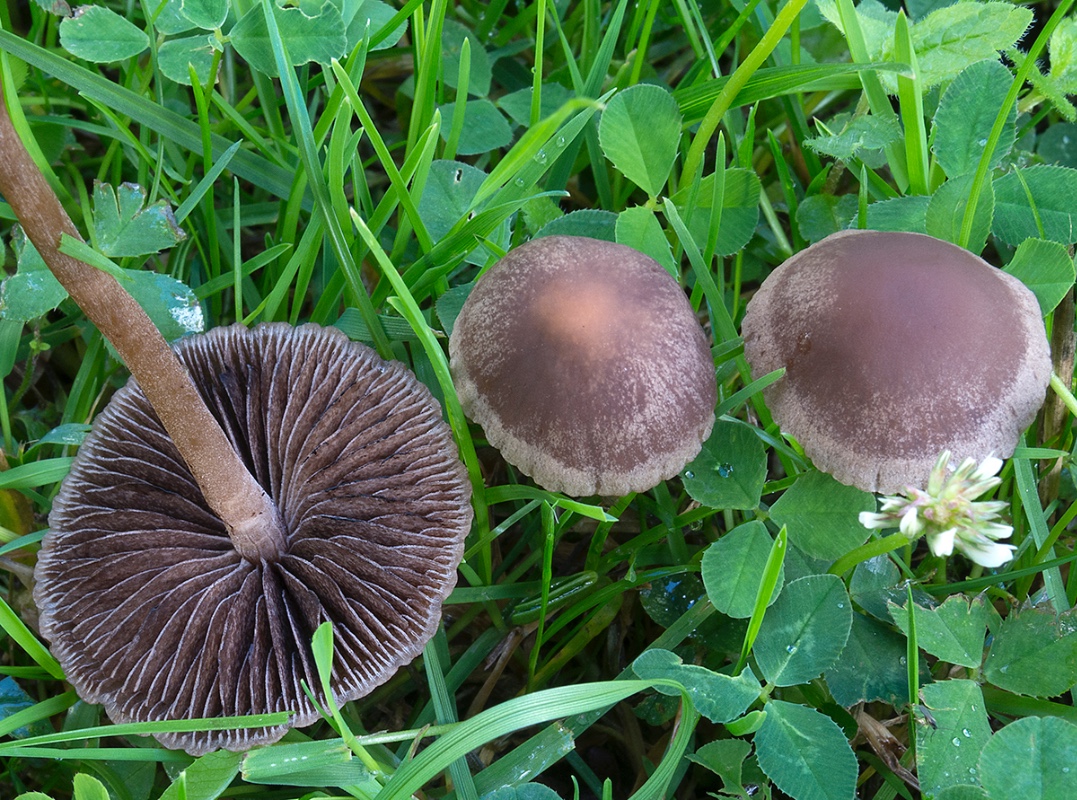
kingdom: Fungi
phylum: Basidiomycota
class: Agaricomycetes
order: Agaricales
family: Bolbitiaceae
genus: Panaeolina
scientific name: Panaeolina foenisecii
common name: høslætsvamp
